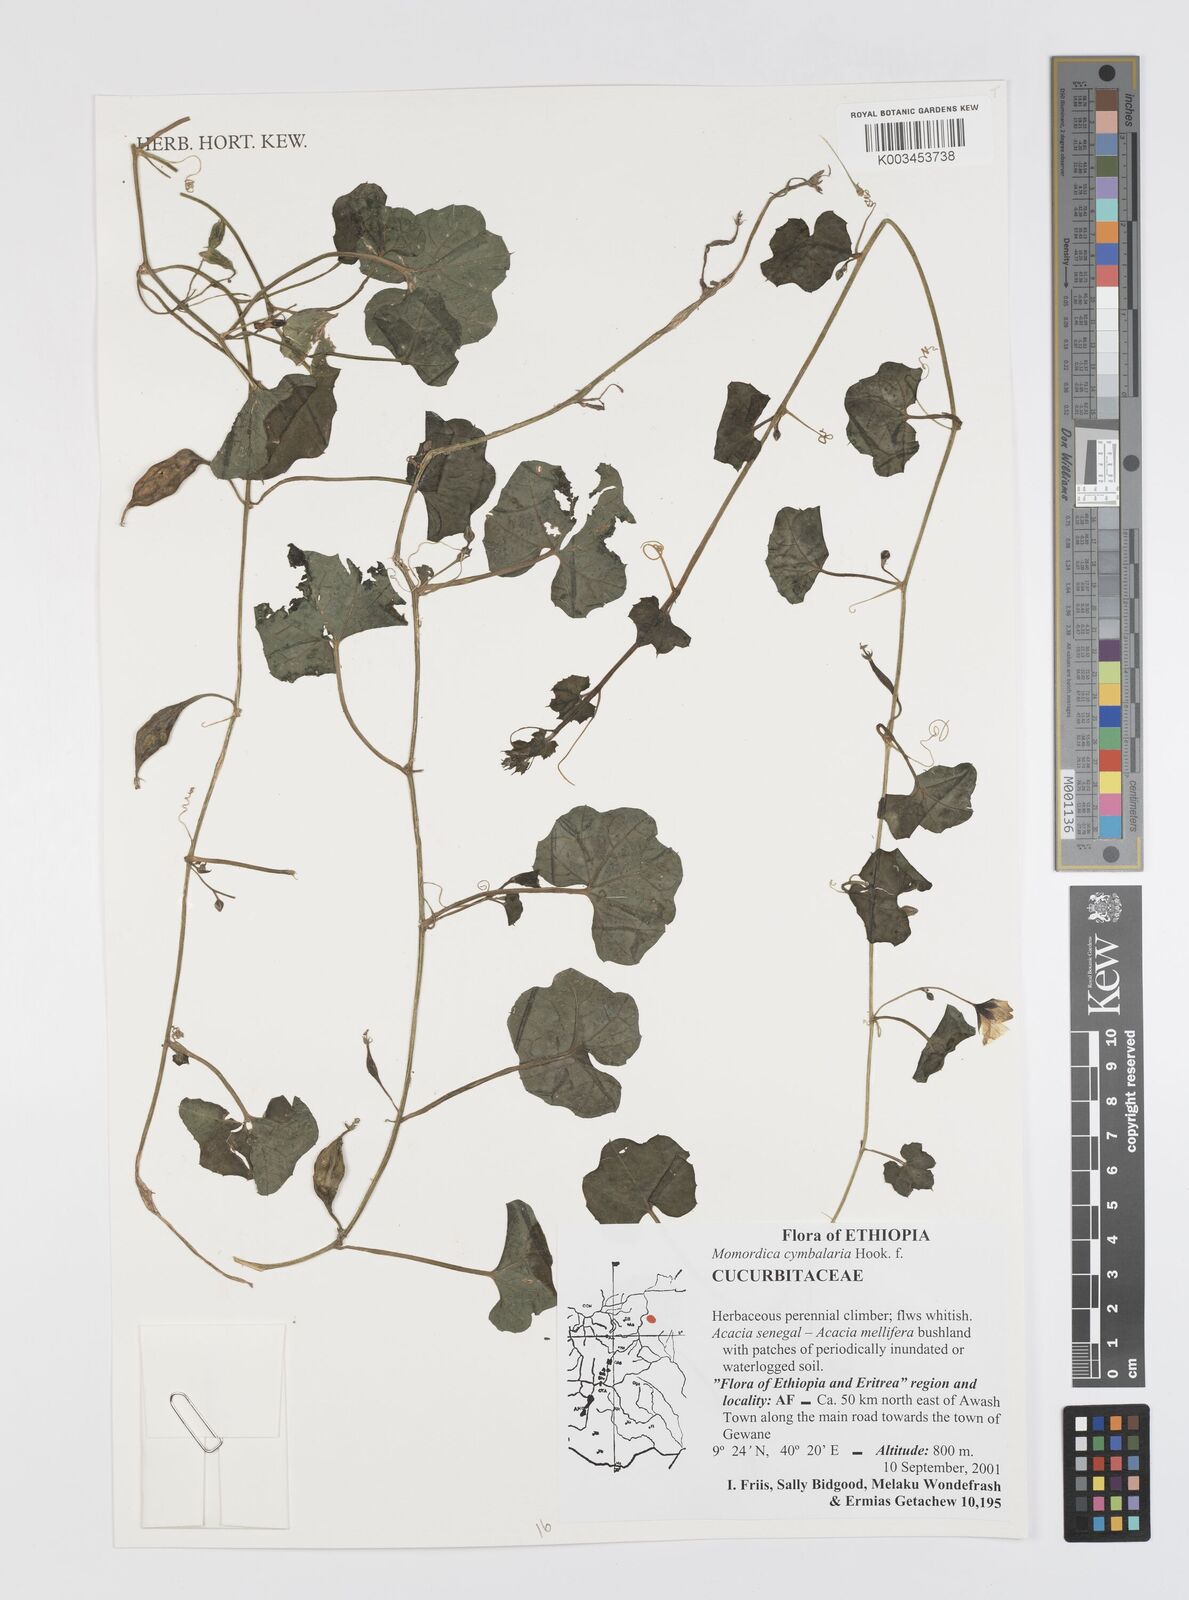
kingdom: Plantae
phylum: Tracheophyta
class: Magnoliopsida
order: Cucurbitales
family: Cucurbitaceae
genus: Momordica
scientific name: Momordica cymbalaria
